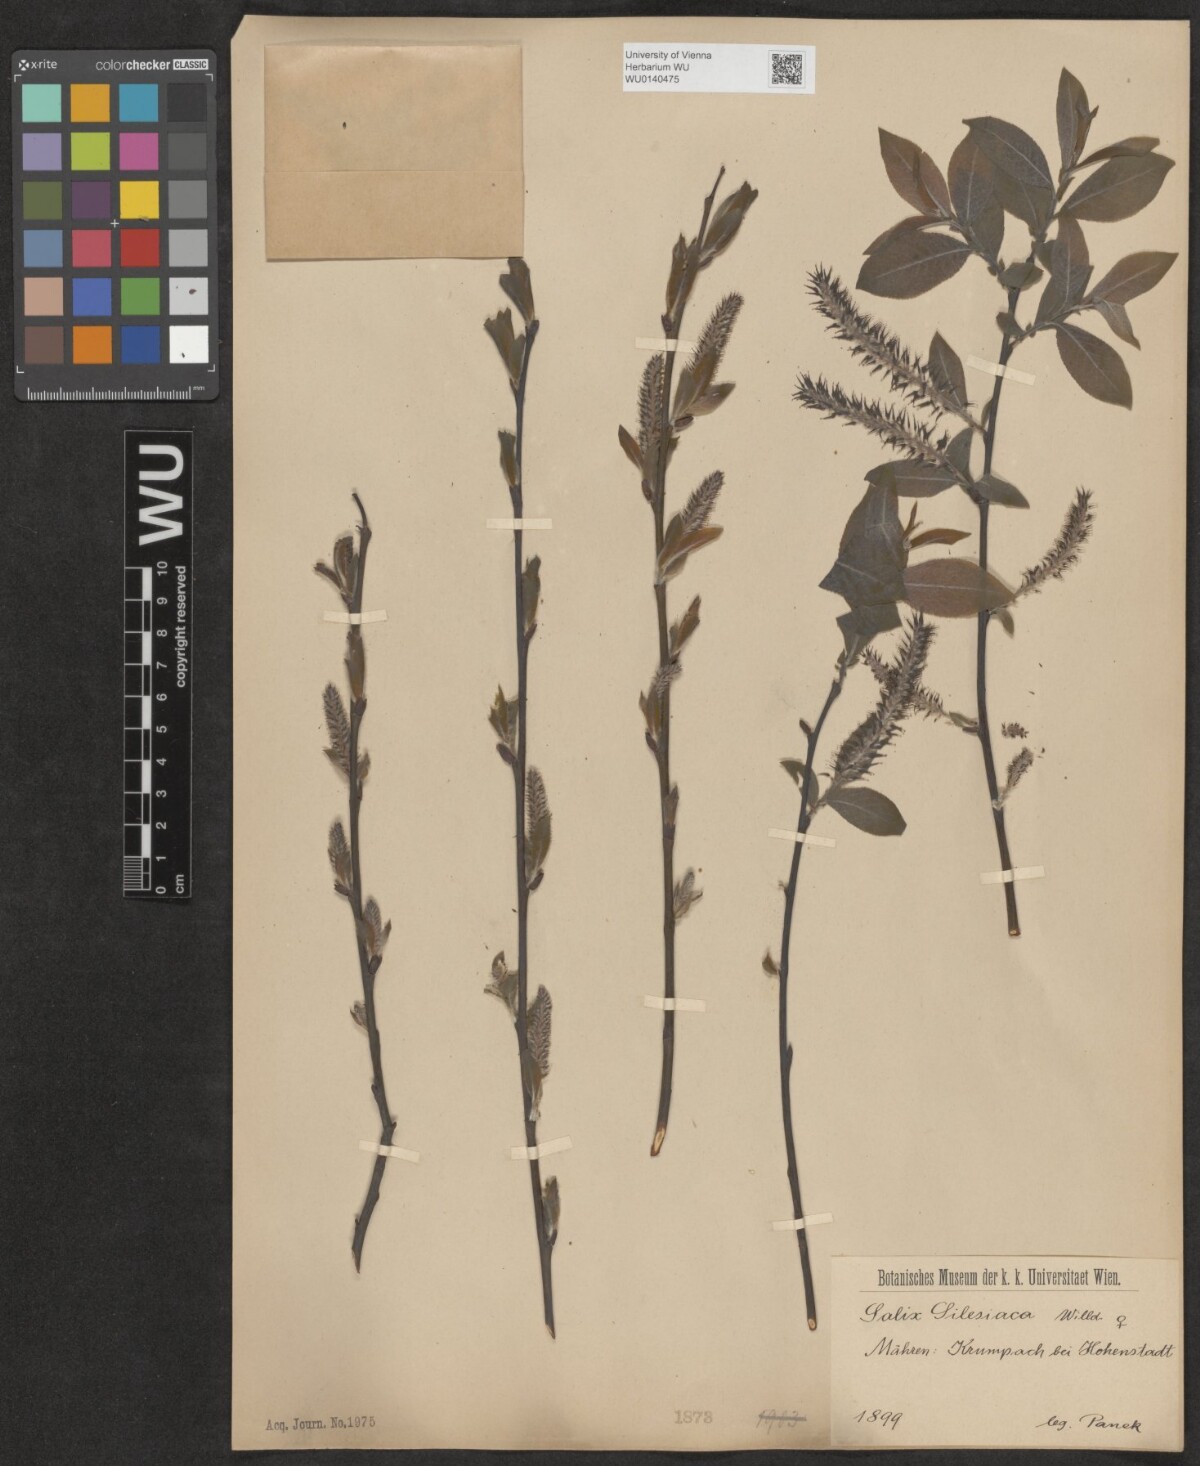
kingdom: Plantae
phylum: Tracheophyta
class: Magnoliopsida
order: Malpighiales
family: Salicaceae
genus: Salix
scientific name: Salix silesiaca
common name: Silesian willow
